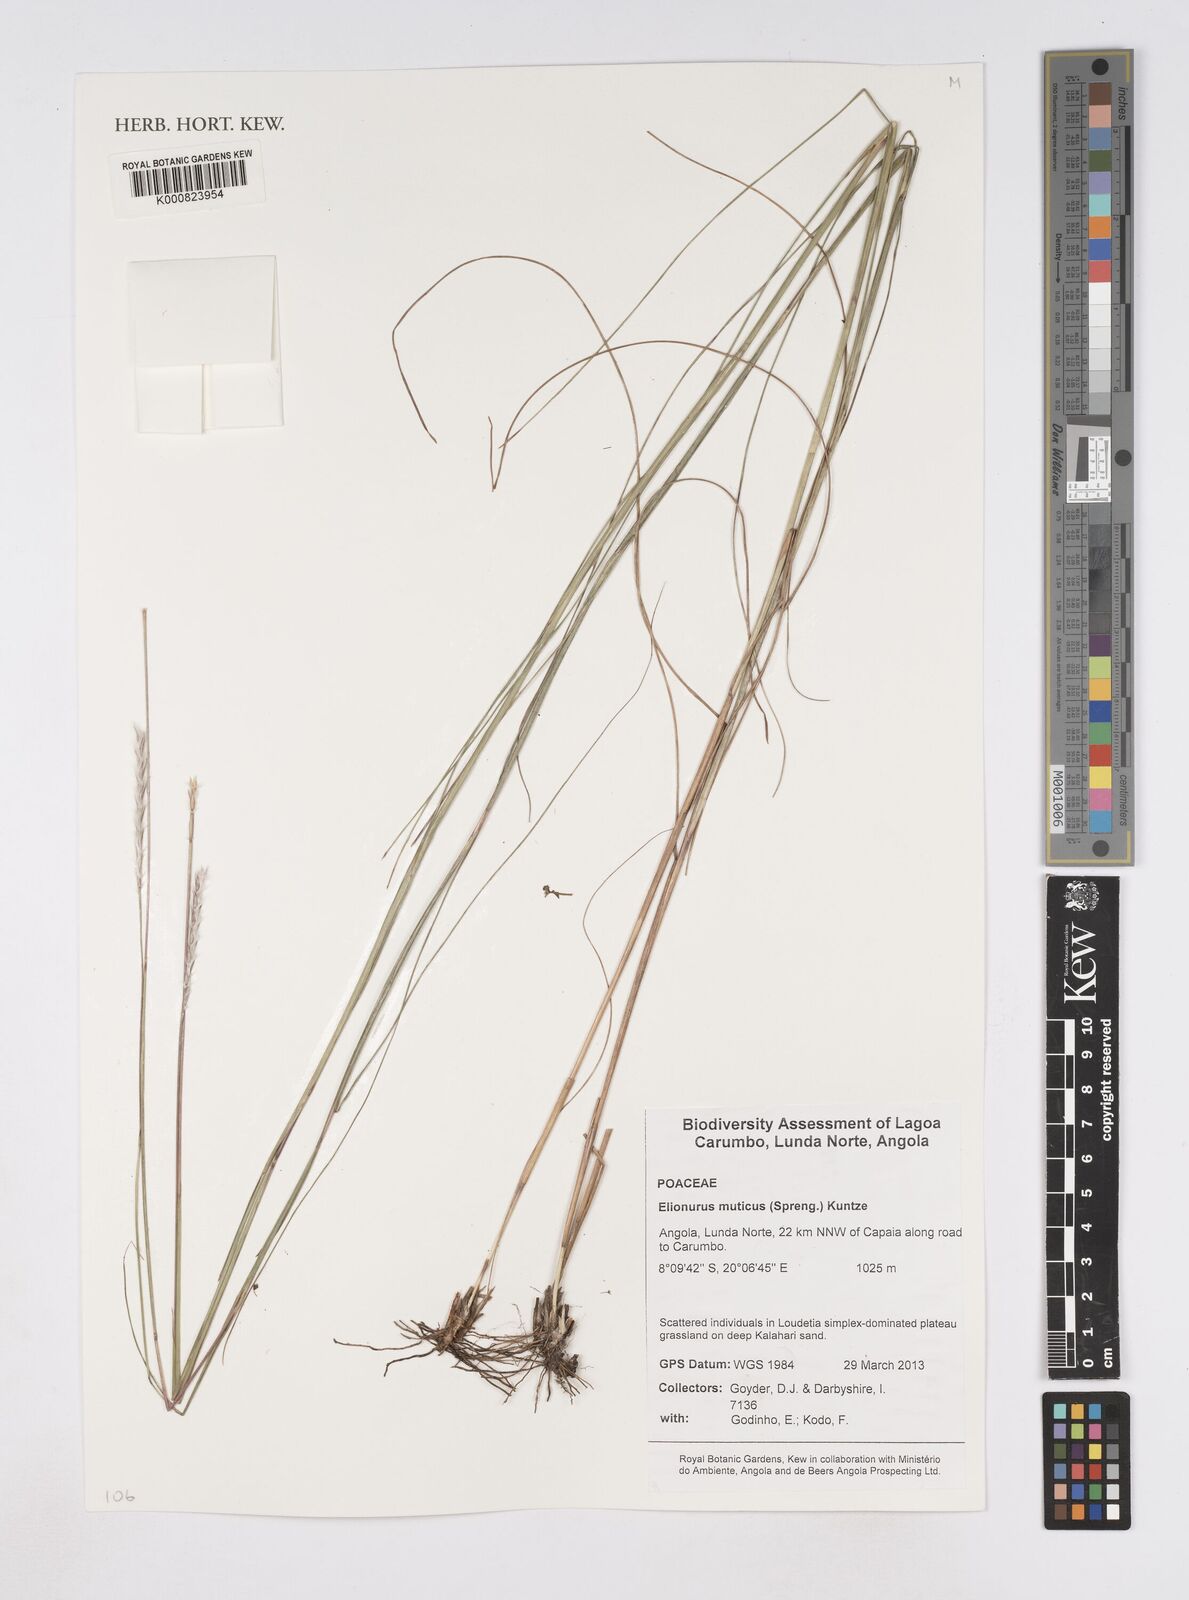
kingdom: Plantae
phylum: Tracheophyta
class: Liliopsida
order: Poales
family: Poaceae
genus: Elionurus
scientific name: Elionurus muticus
